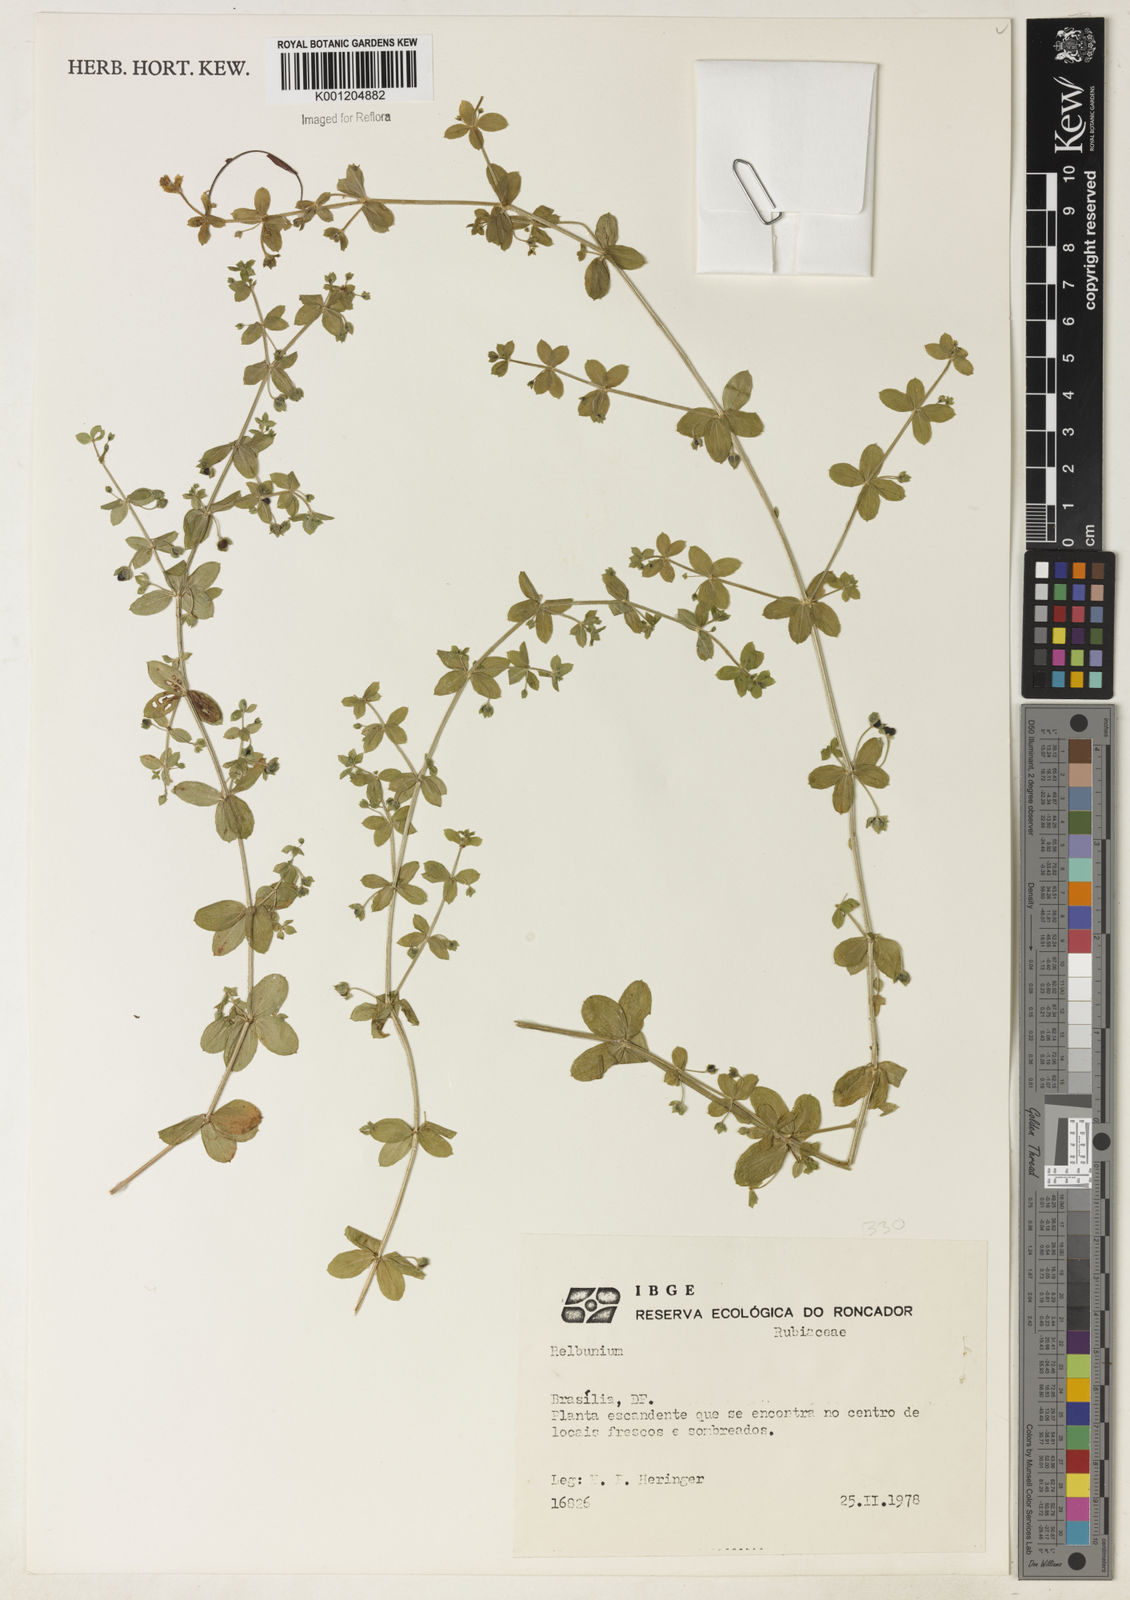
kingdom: Plantae
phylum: Tracheophyta
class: Magnoliopsida
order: Gentianales
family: Rubiaceae
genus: Galium
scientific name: Galium
